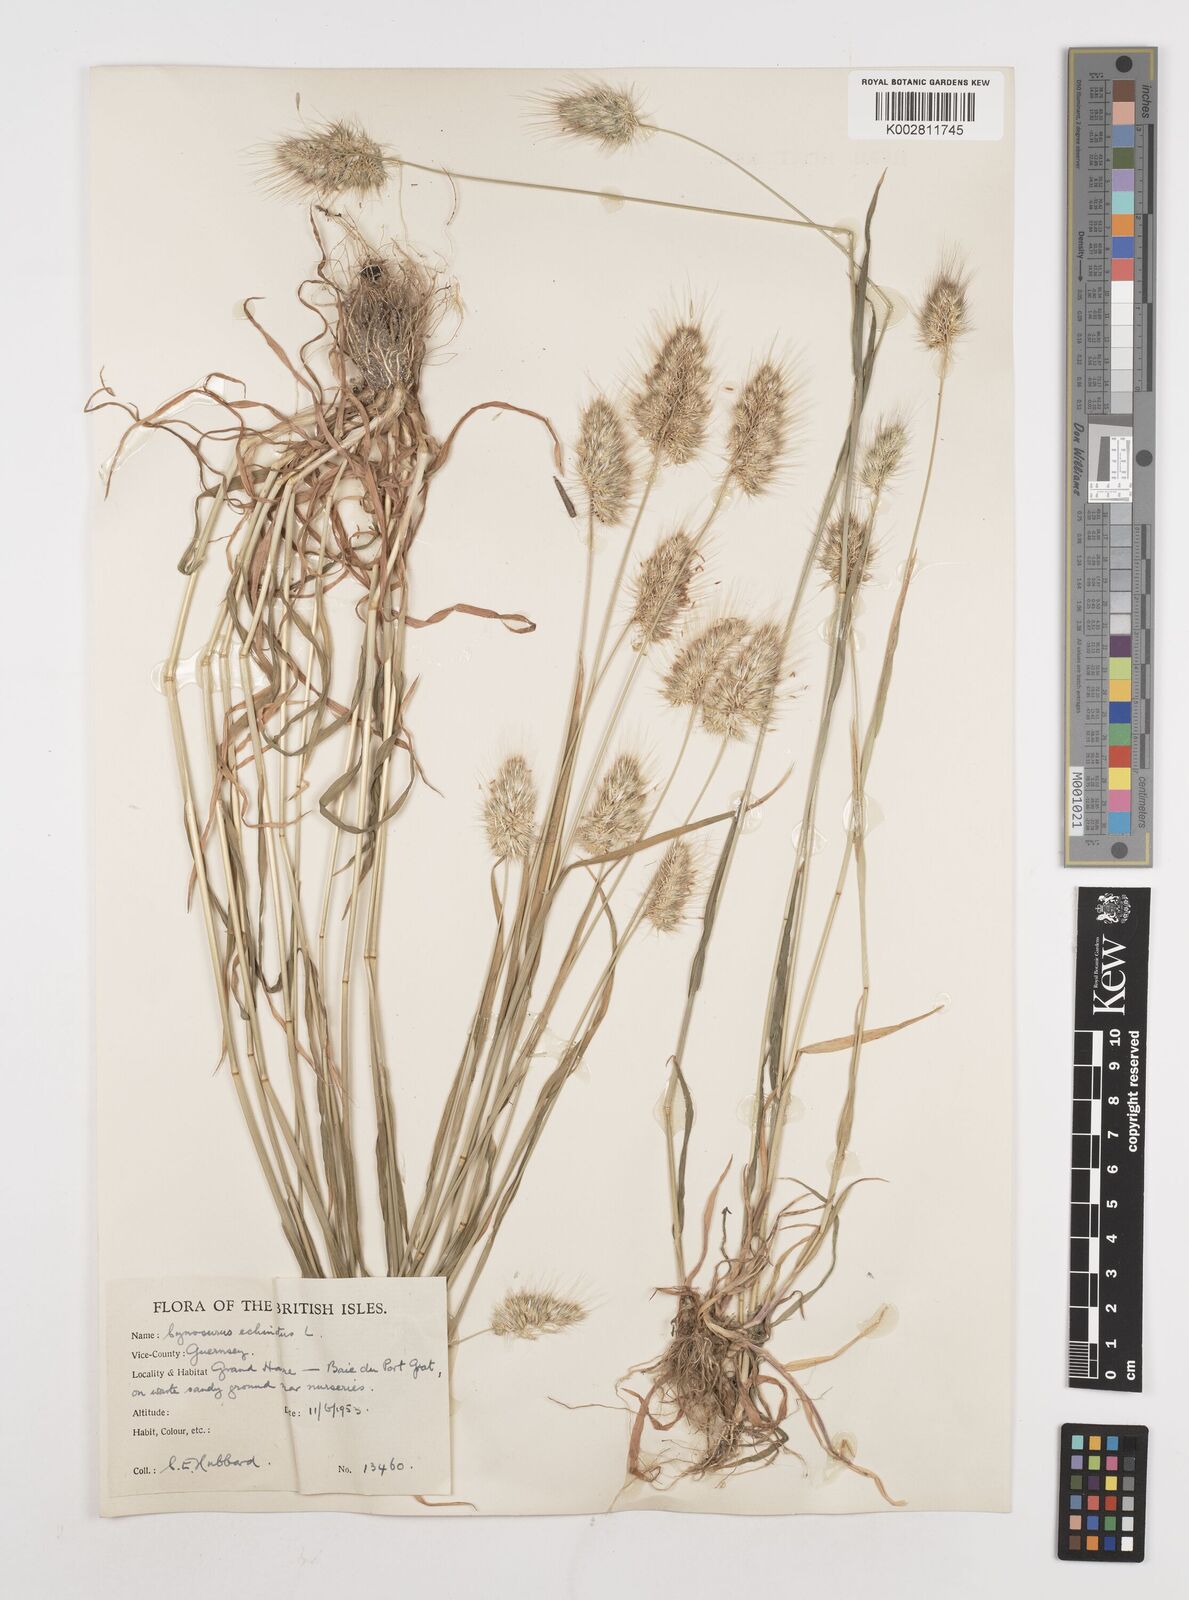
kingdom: Plantae
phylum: Tracheophyta
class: Liliopsida
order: Poales
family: Poaceae
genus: Cynosurus
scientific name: Cynosurus echinatus
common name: Rough dog's-tail
